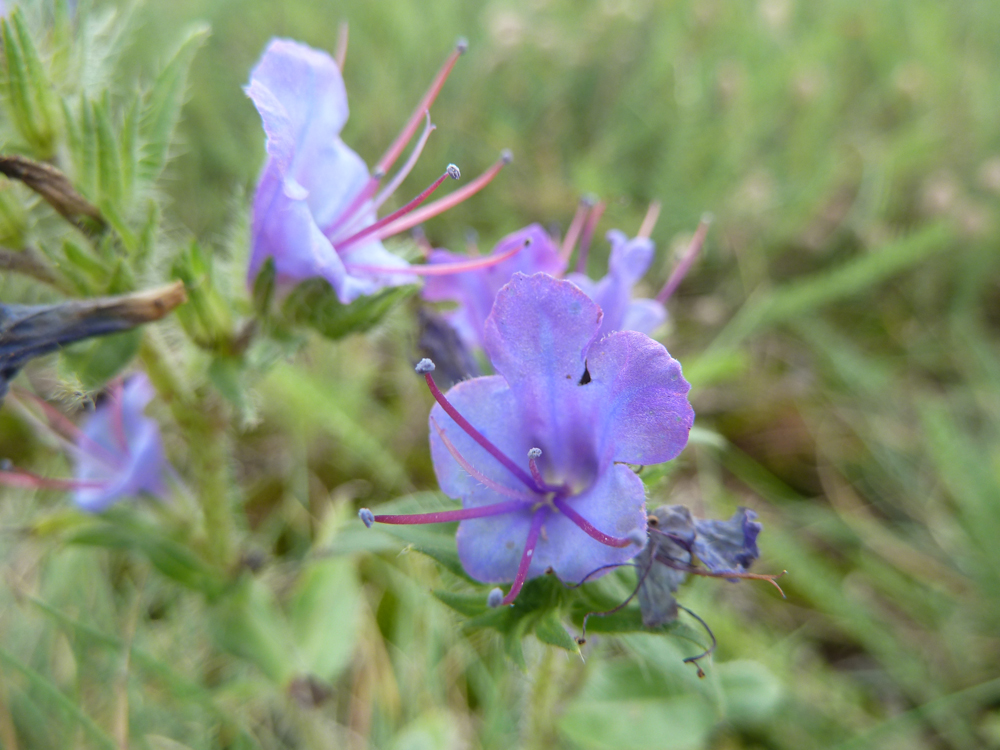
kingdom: Plantae
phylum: Tracheophyta
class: Magnoliopsida
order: Boraginales
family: Boraginaceae
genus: Echium
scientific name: Echium vulgare
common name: Common viper's bugloss
